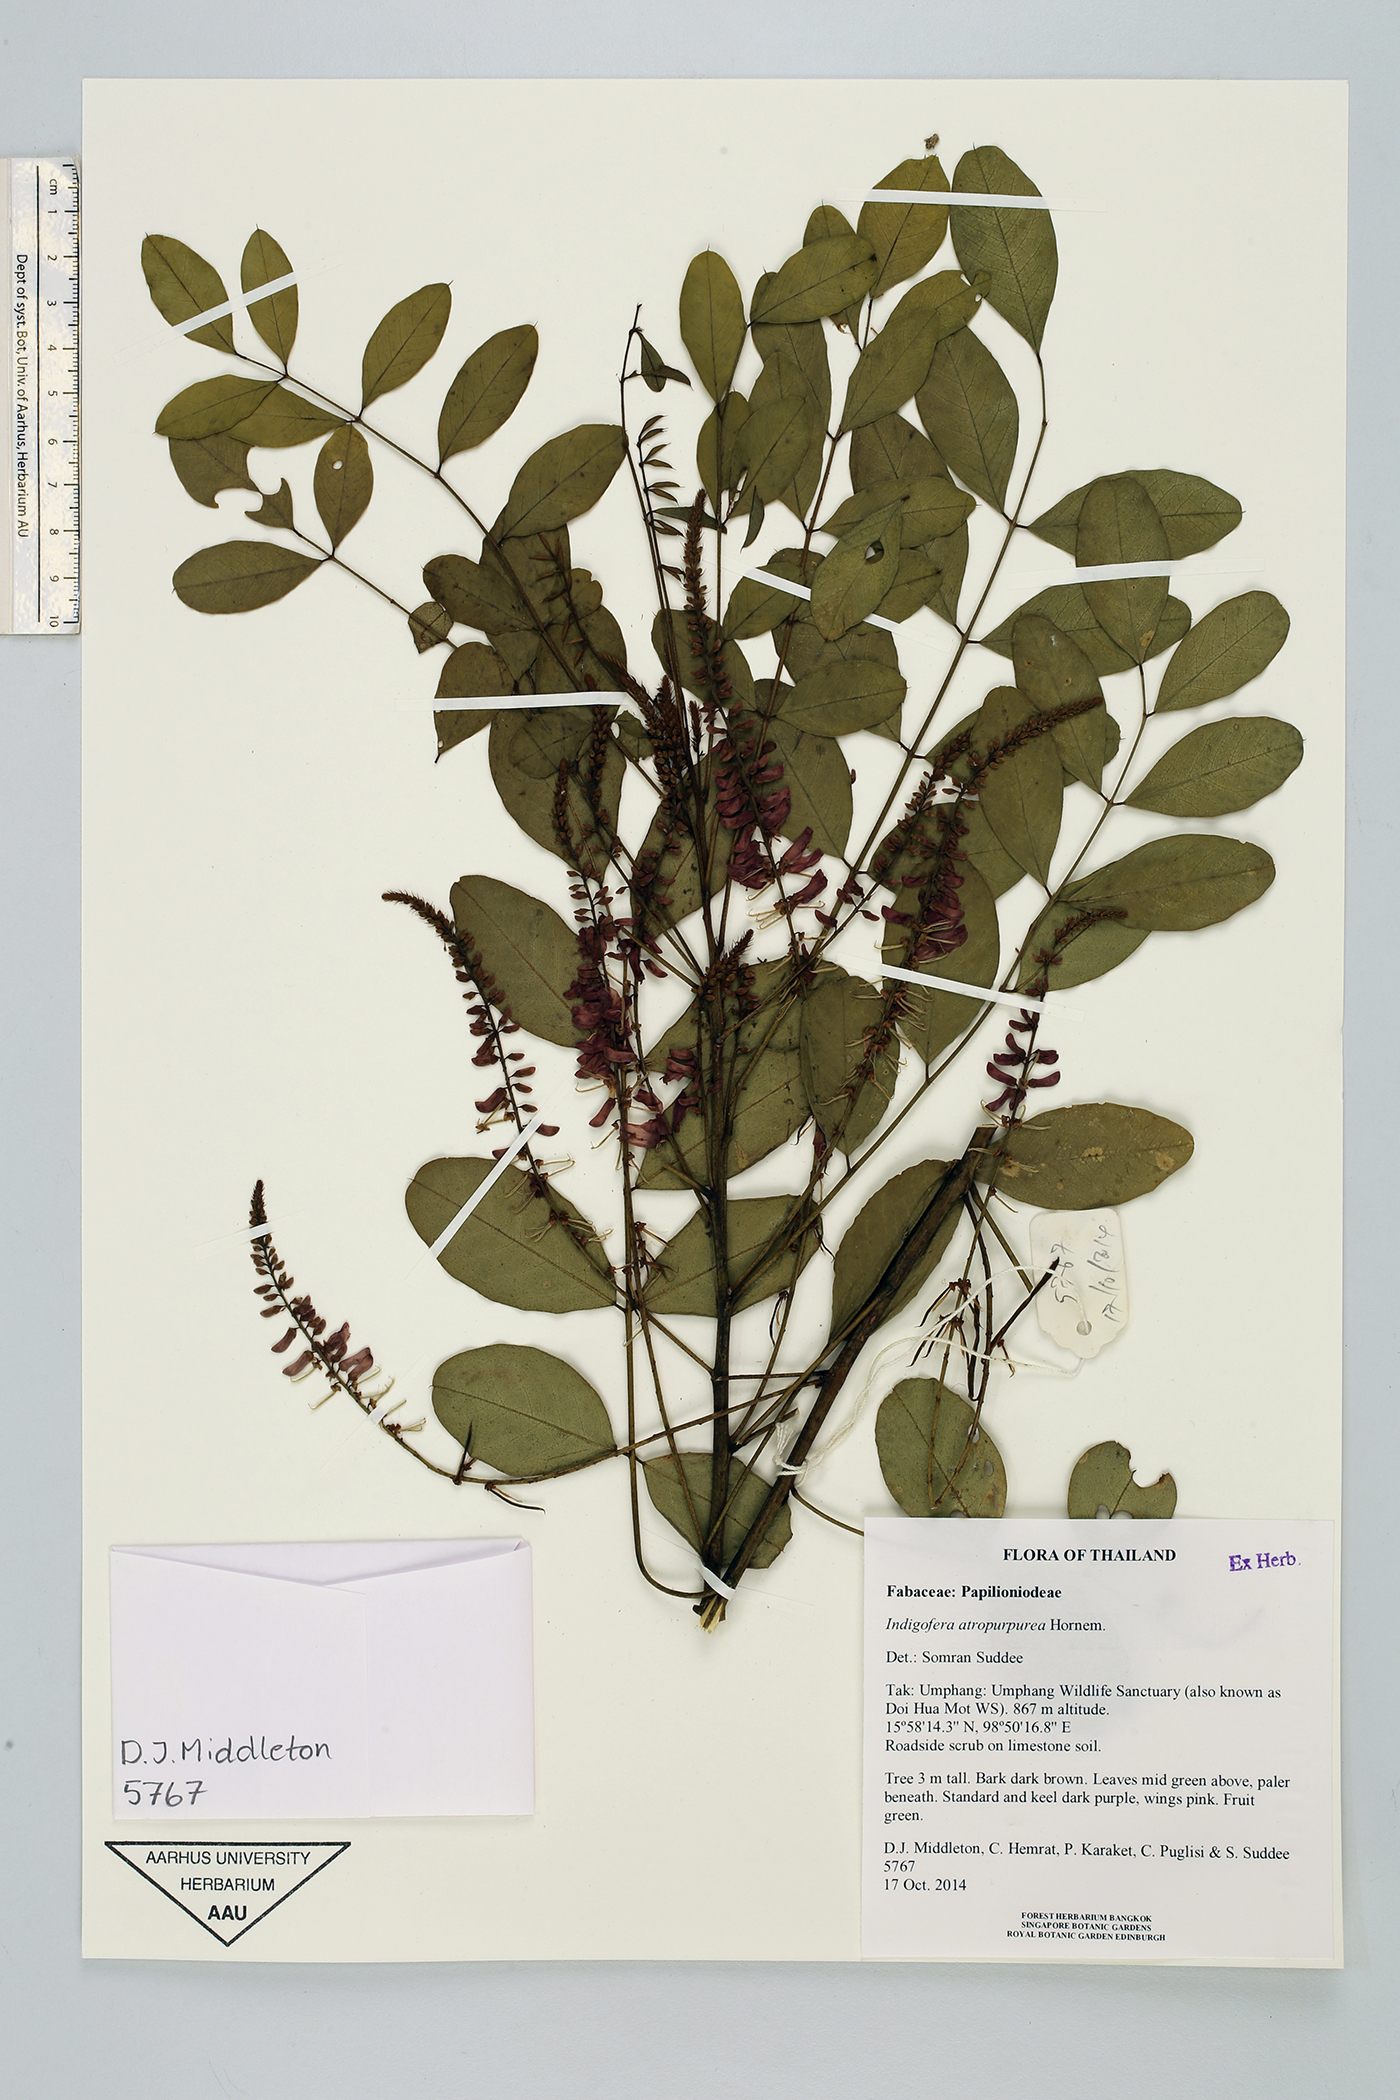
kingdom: Plantae
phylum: Tracheophyta
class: Magnoliopsida
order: Fabales
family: Fabaceae
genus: Indigofera
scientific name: Indigofera atropurpurea
